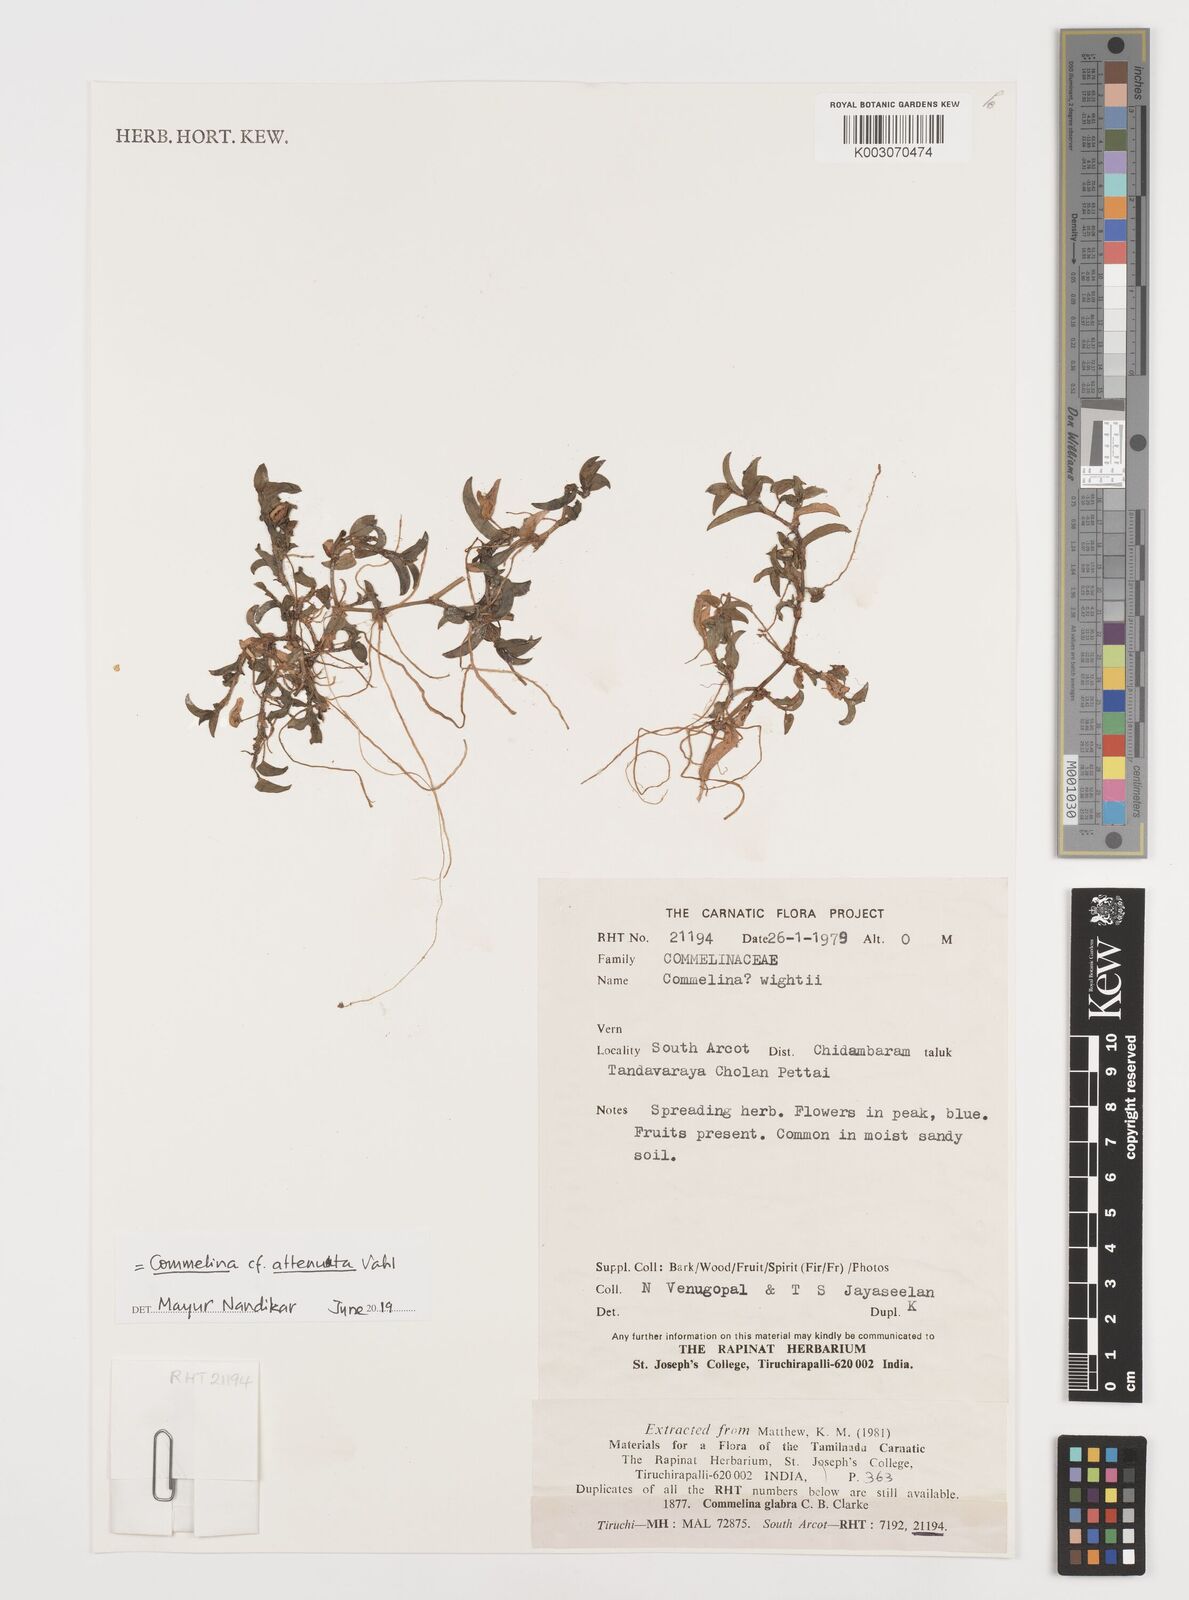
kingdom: Plantae
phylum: Tracheophyta
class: Liliopsida
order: Commelinales
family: Commelinaceae
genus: Commelina
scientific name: Commelina
